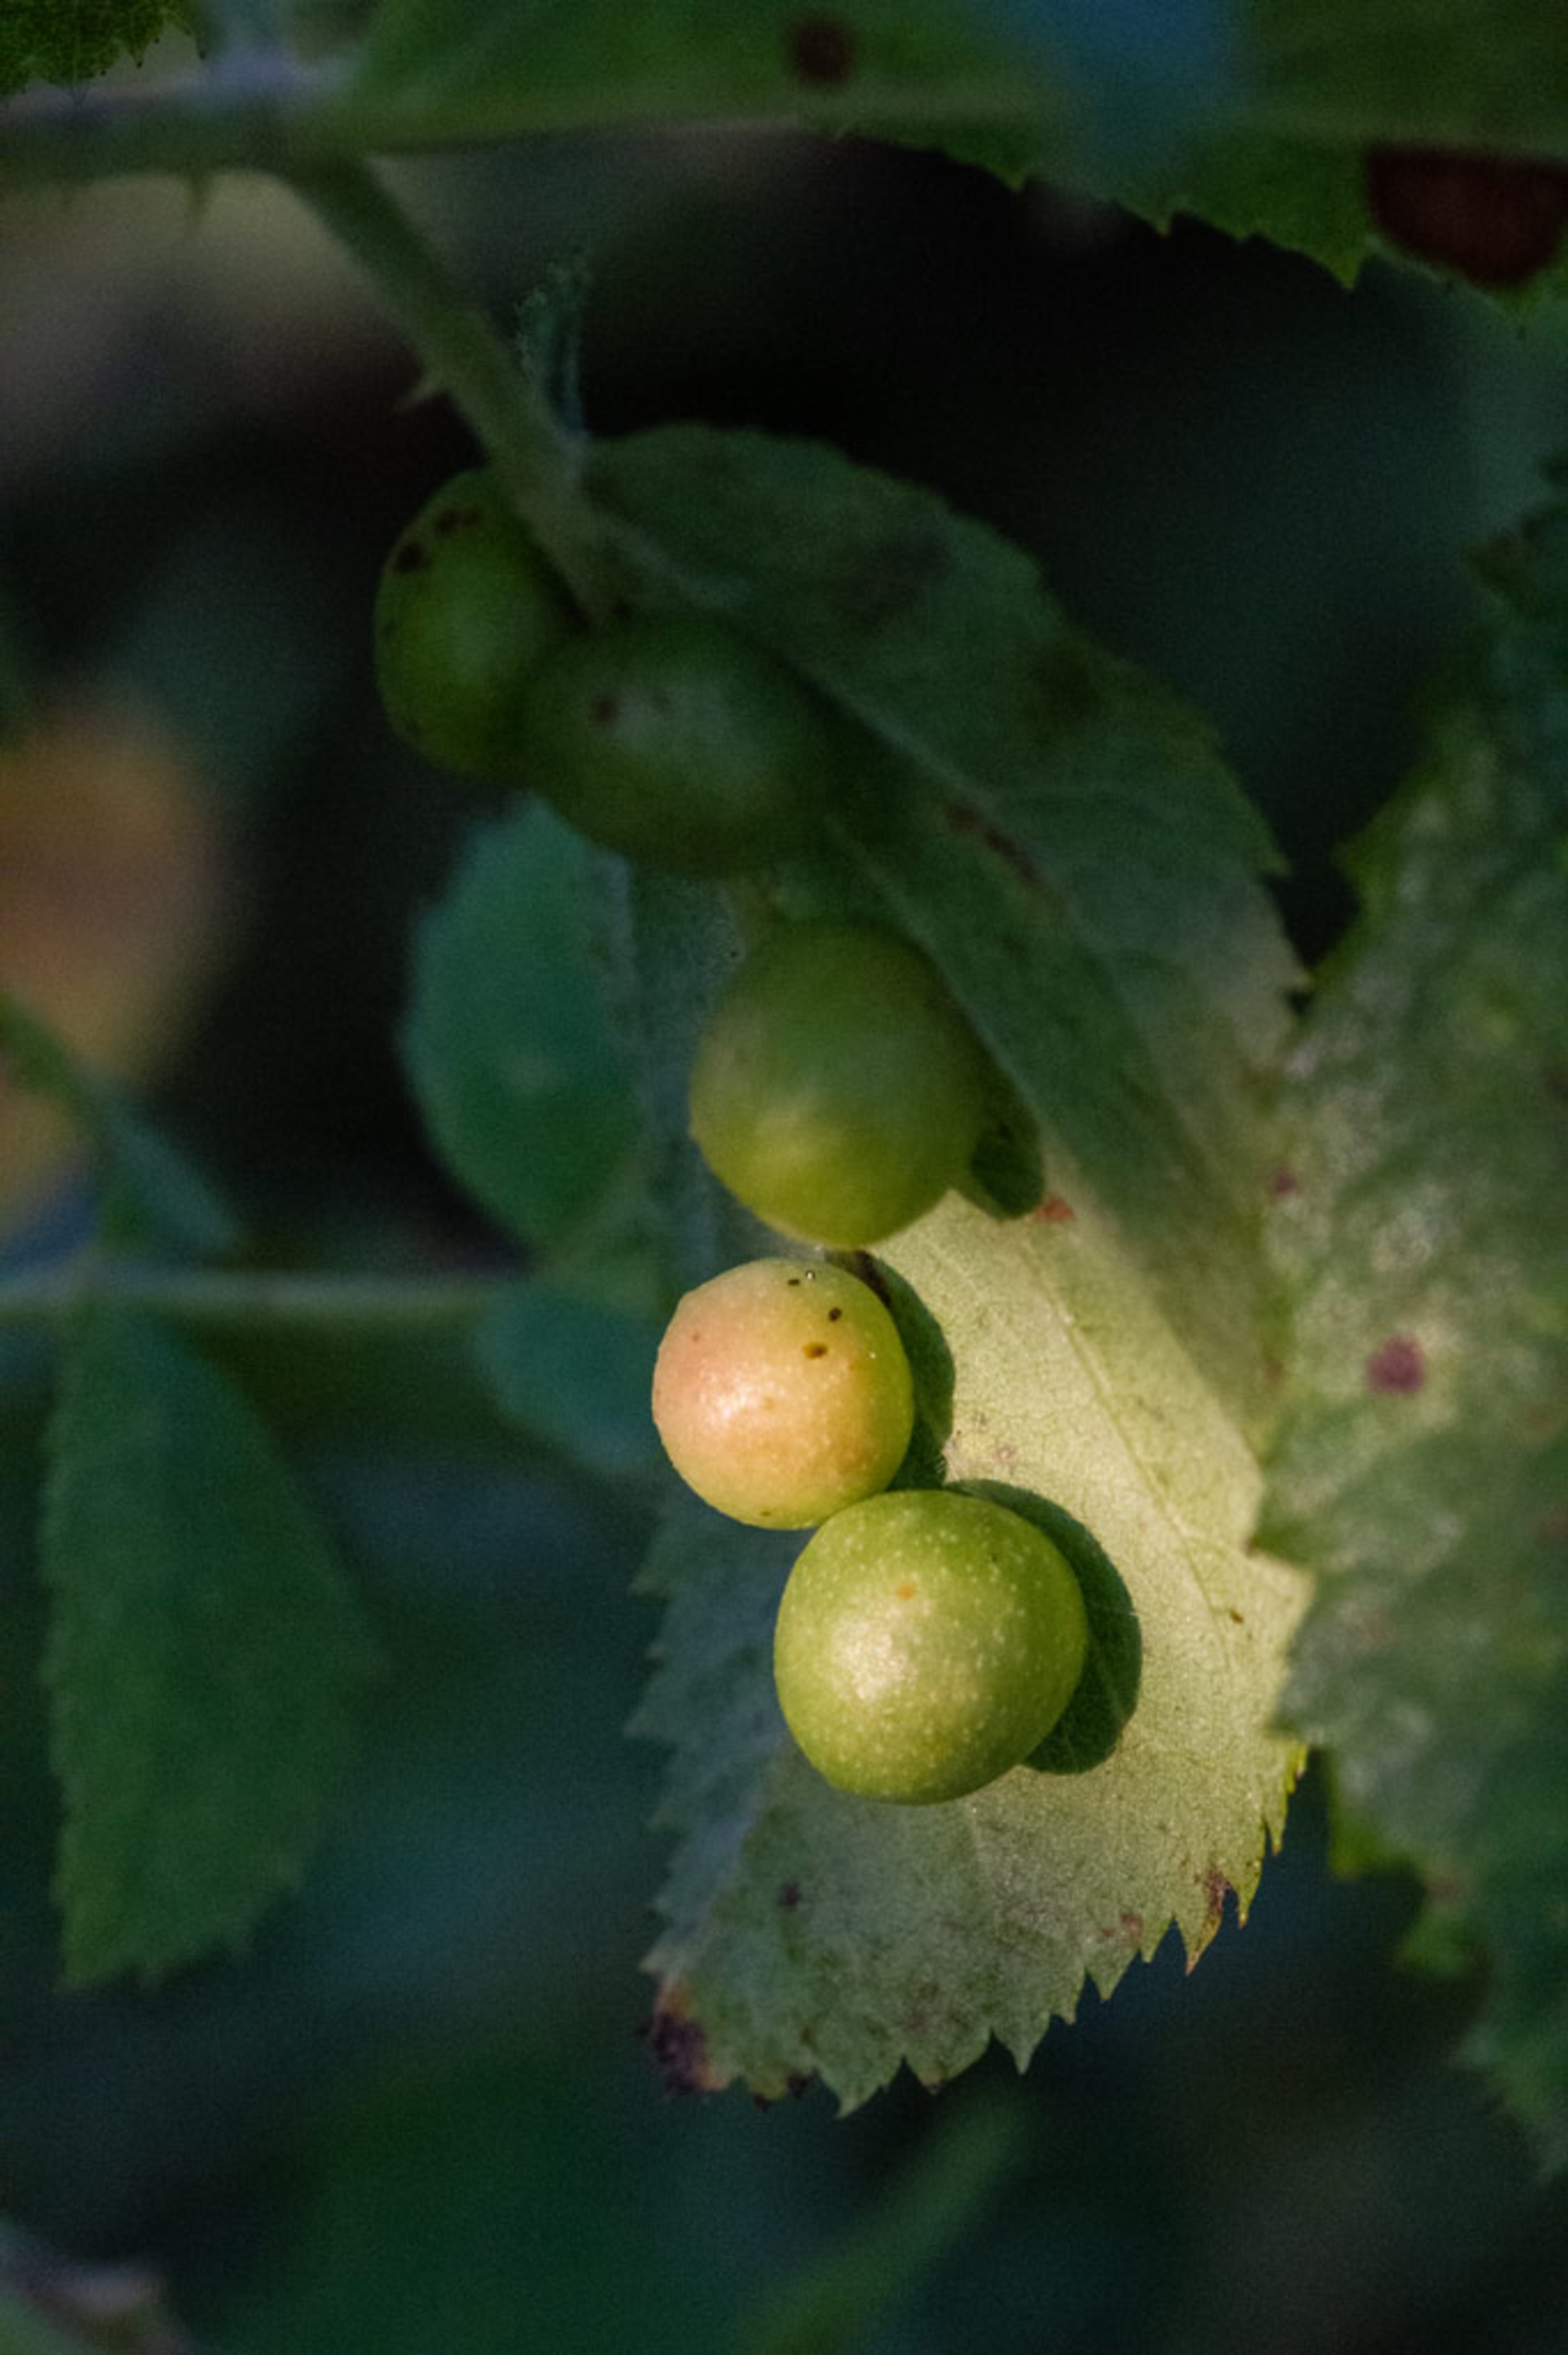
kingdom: Animalia
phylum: Arthropoda
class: Insecta
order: Hymenoptera
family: Cynipidae
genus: Diplolepis
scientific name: Diplolepis
